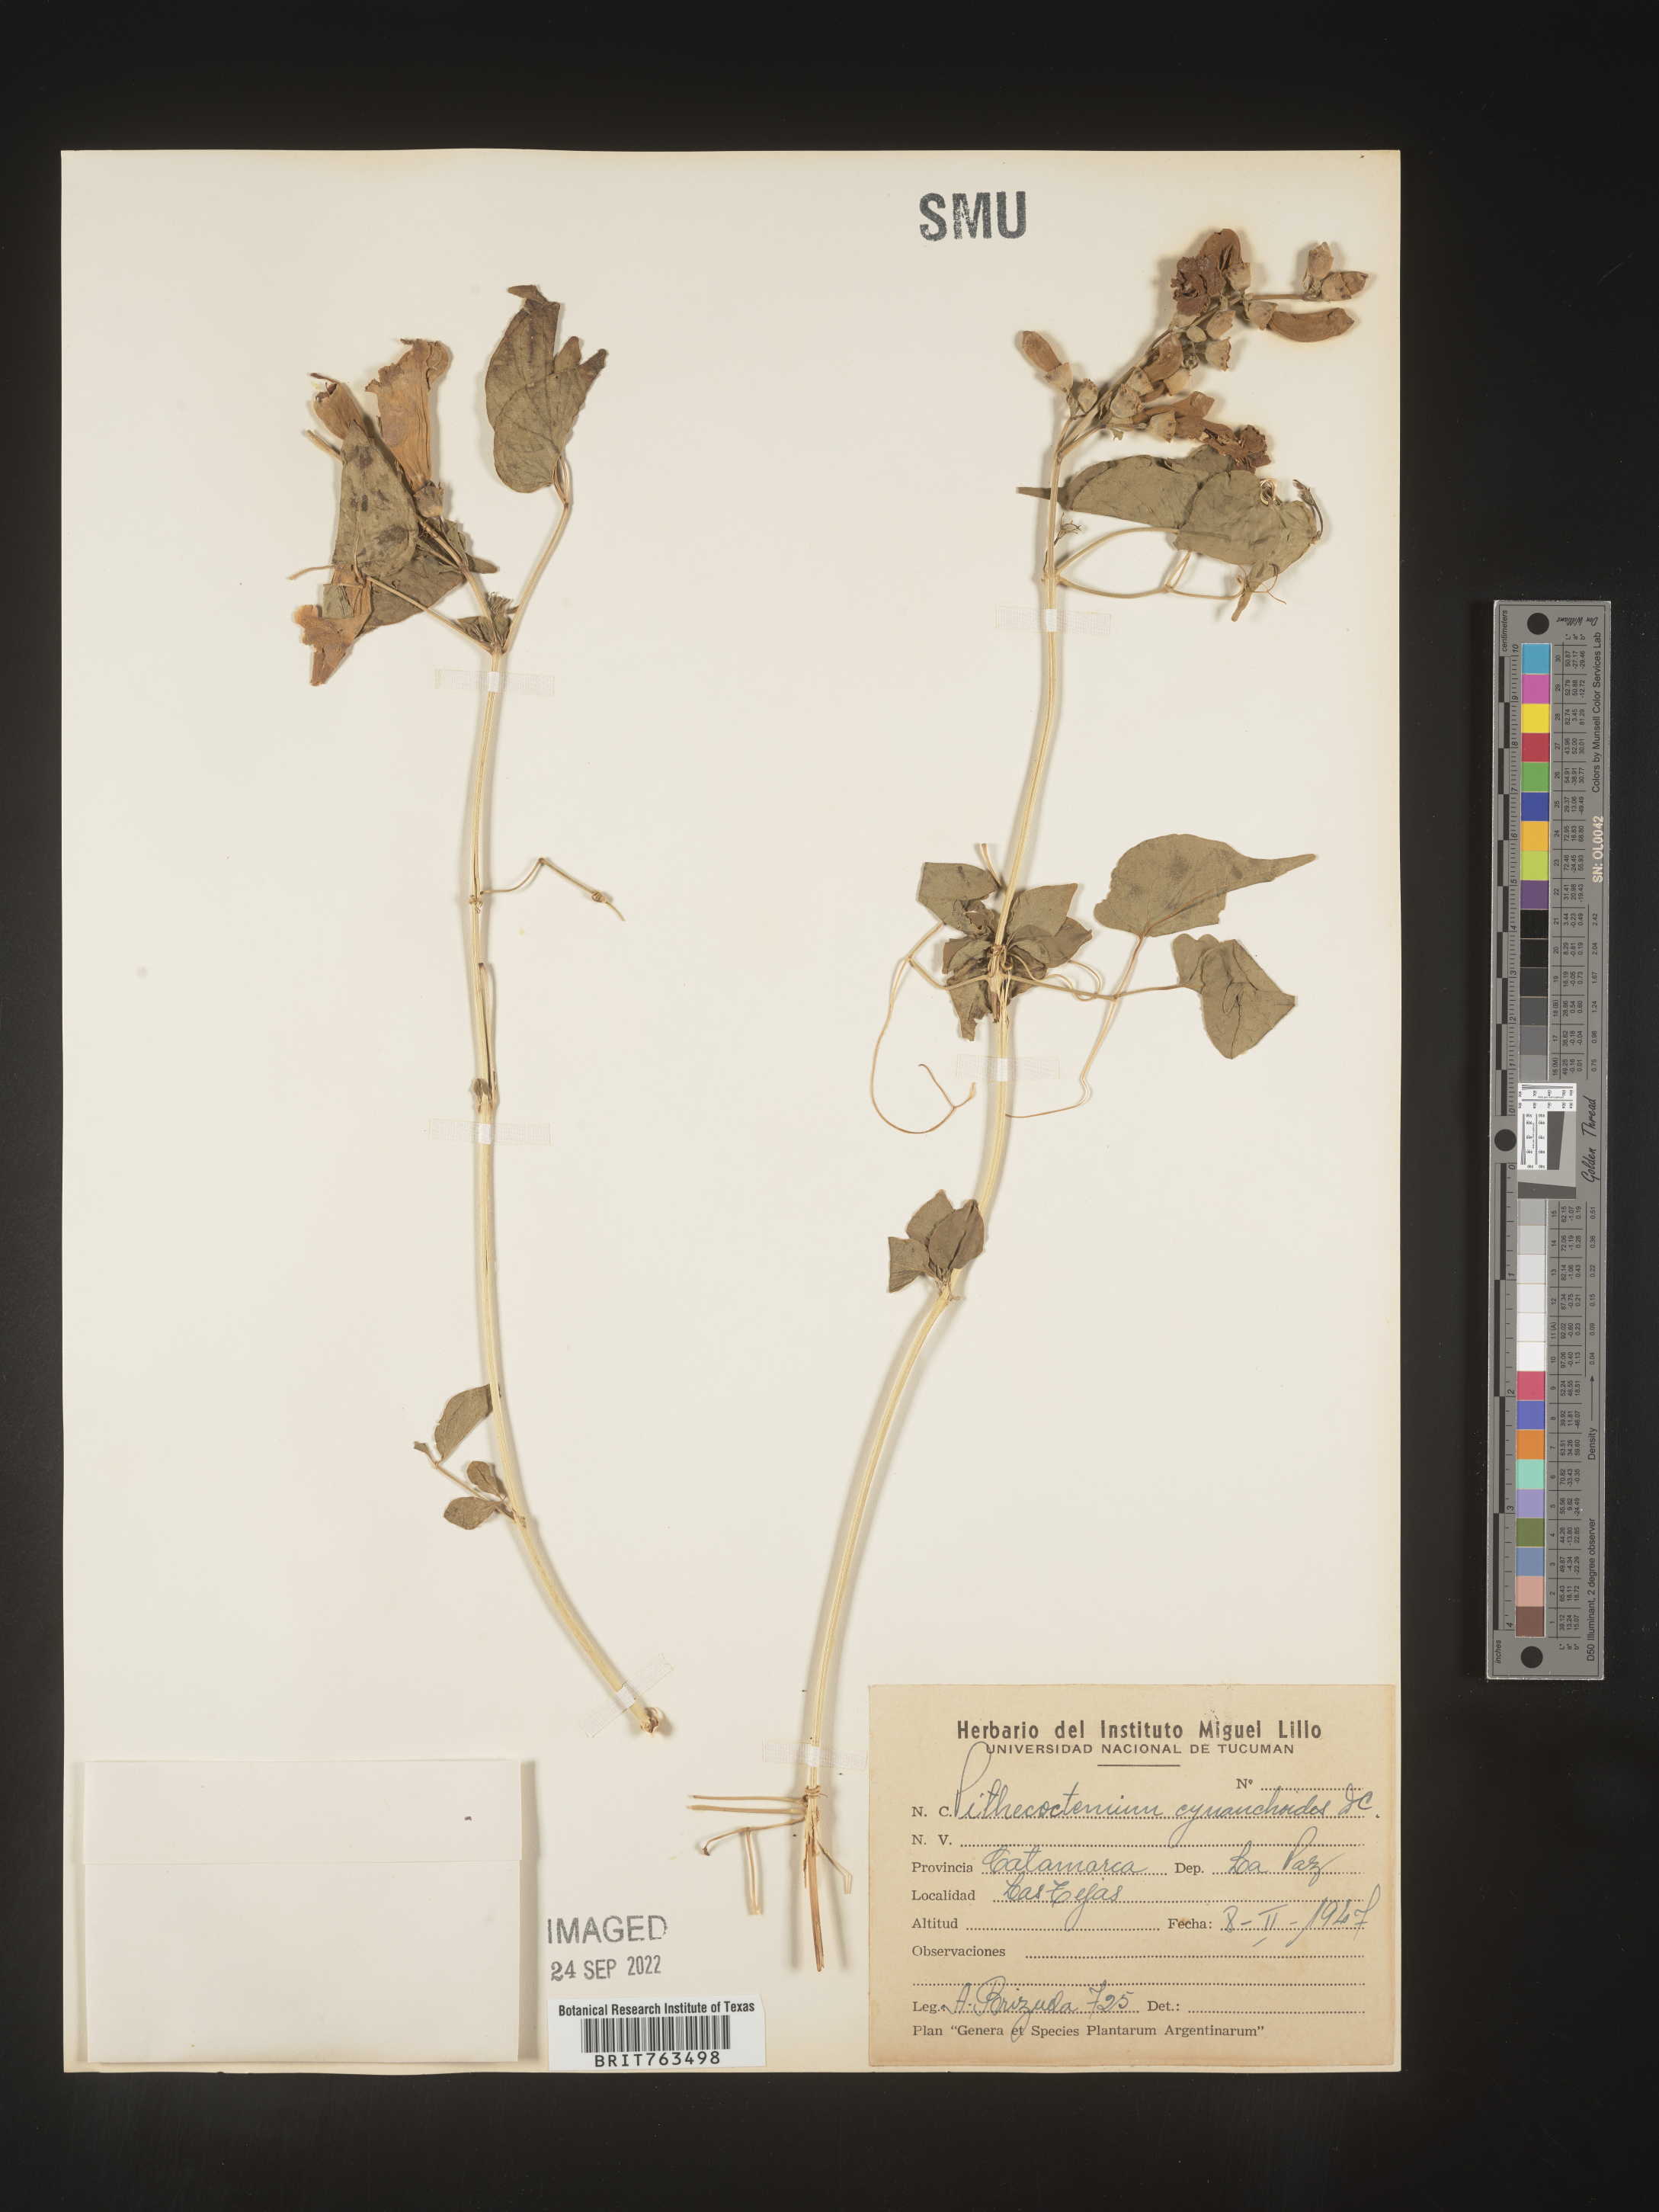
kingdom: Plantae
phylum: Tracheophyta
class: Magnoliopsida
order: Lamiales
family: Bignoniaceae
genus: Pithecoctenium
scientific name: Pithecoctenium
